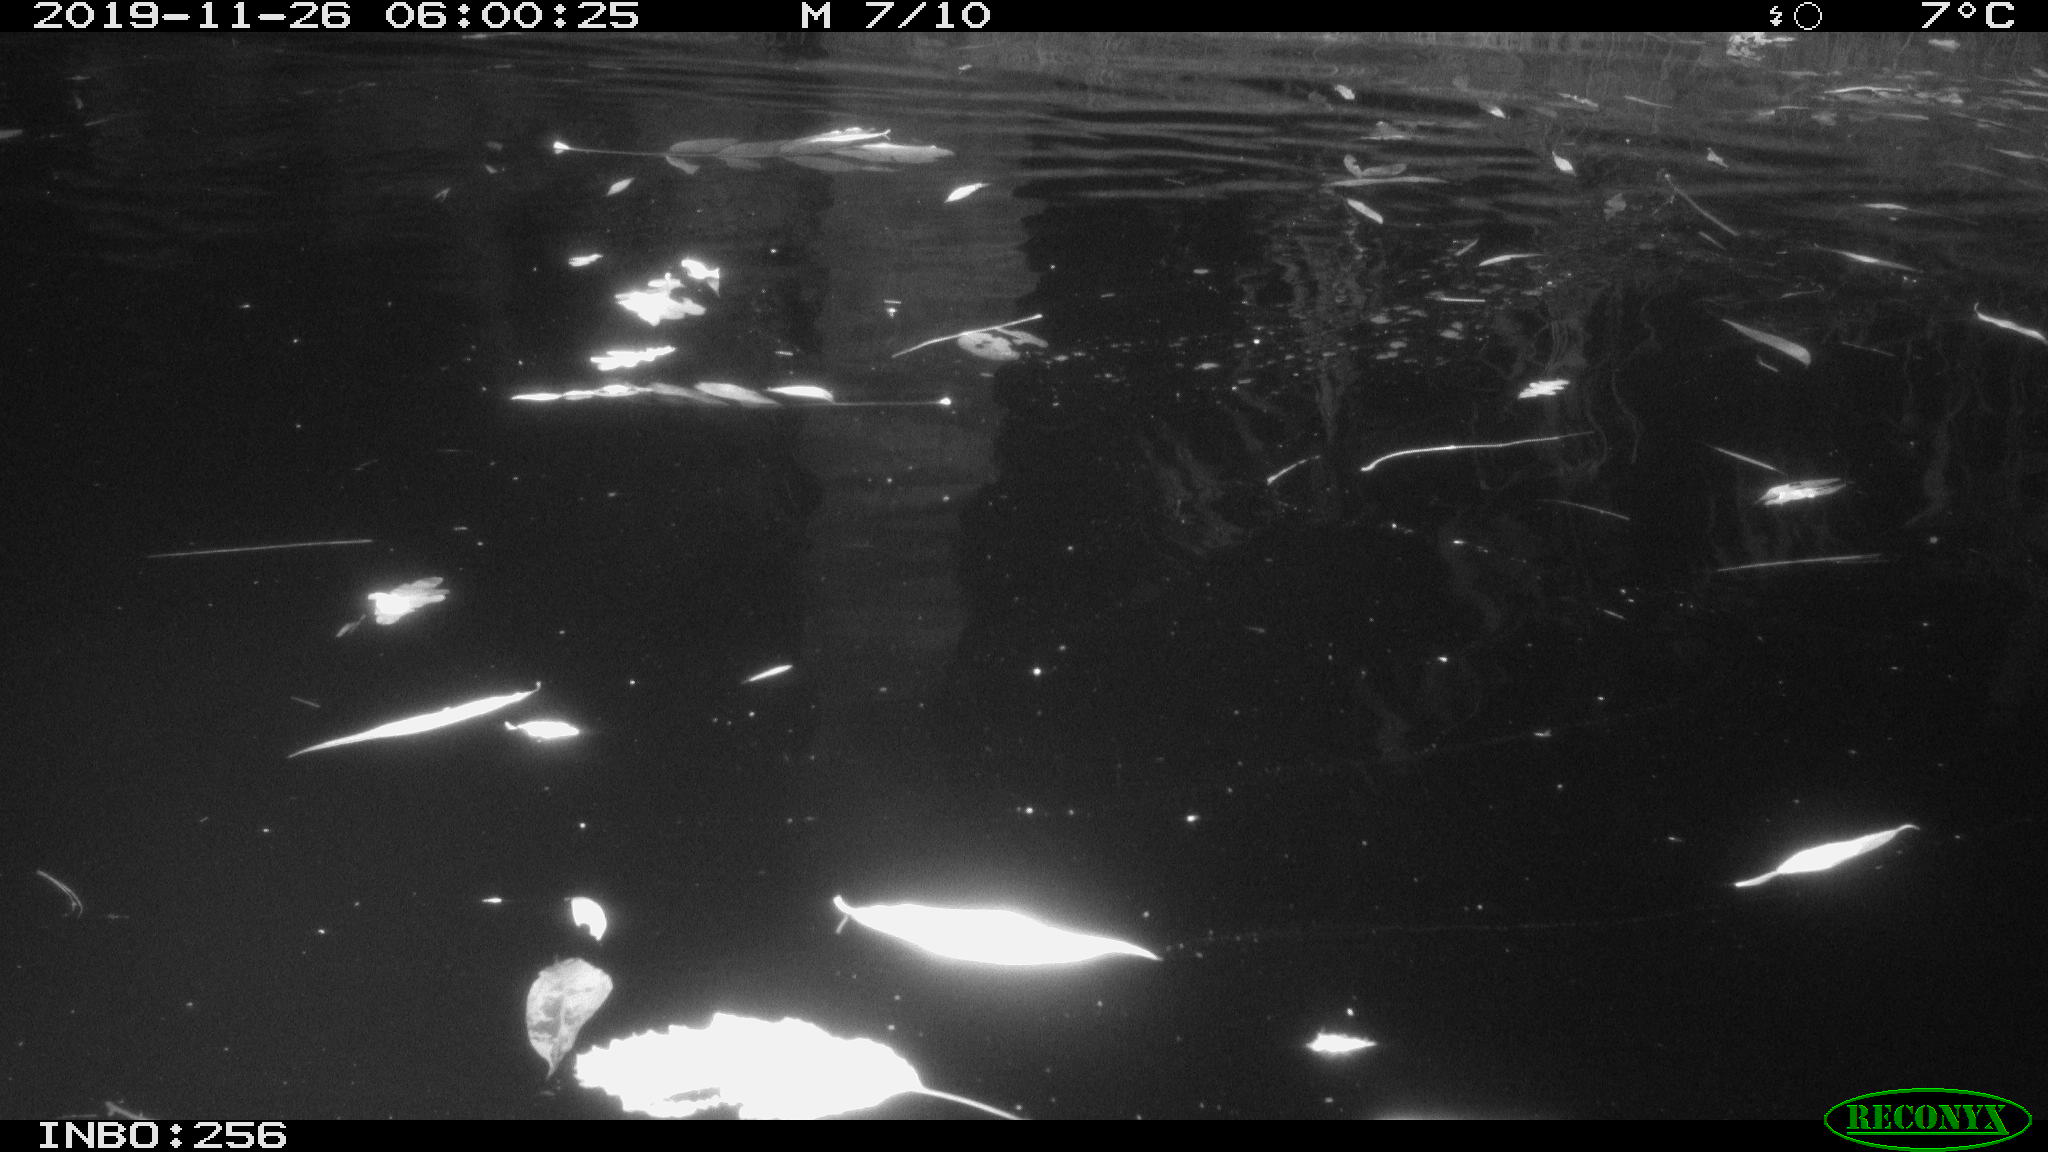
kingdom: Animalia
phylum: Chordata
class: Aves
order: Anseriformes
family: Anatidae
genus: Anas
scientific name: Anas platyrhynchos
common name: Mallard
